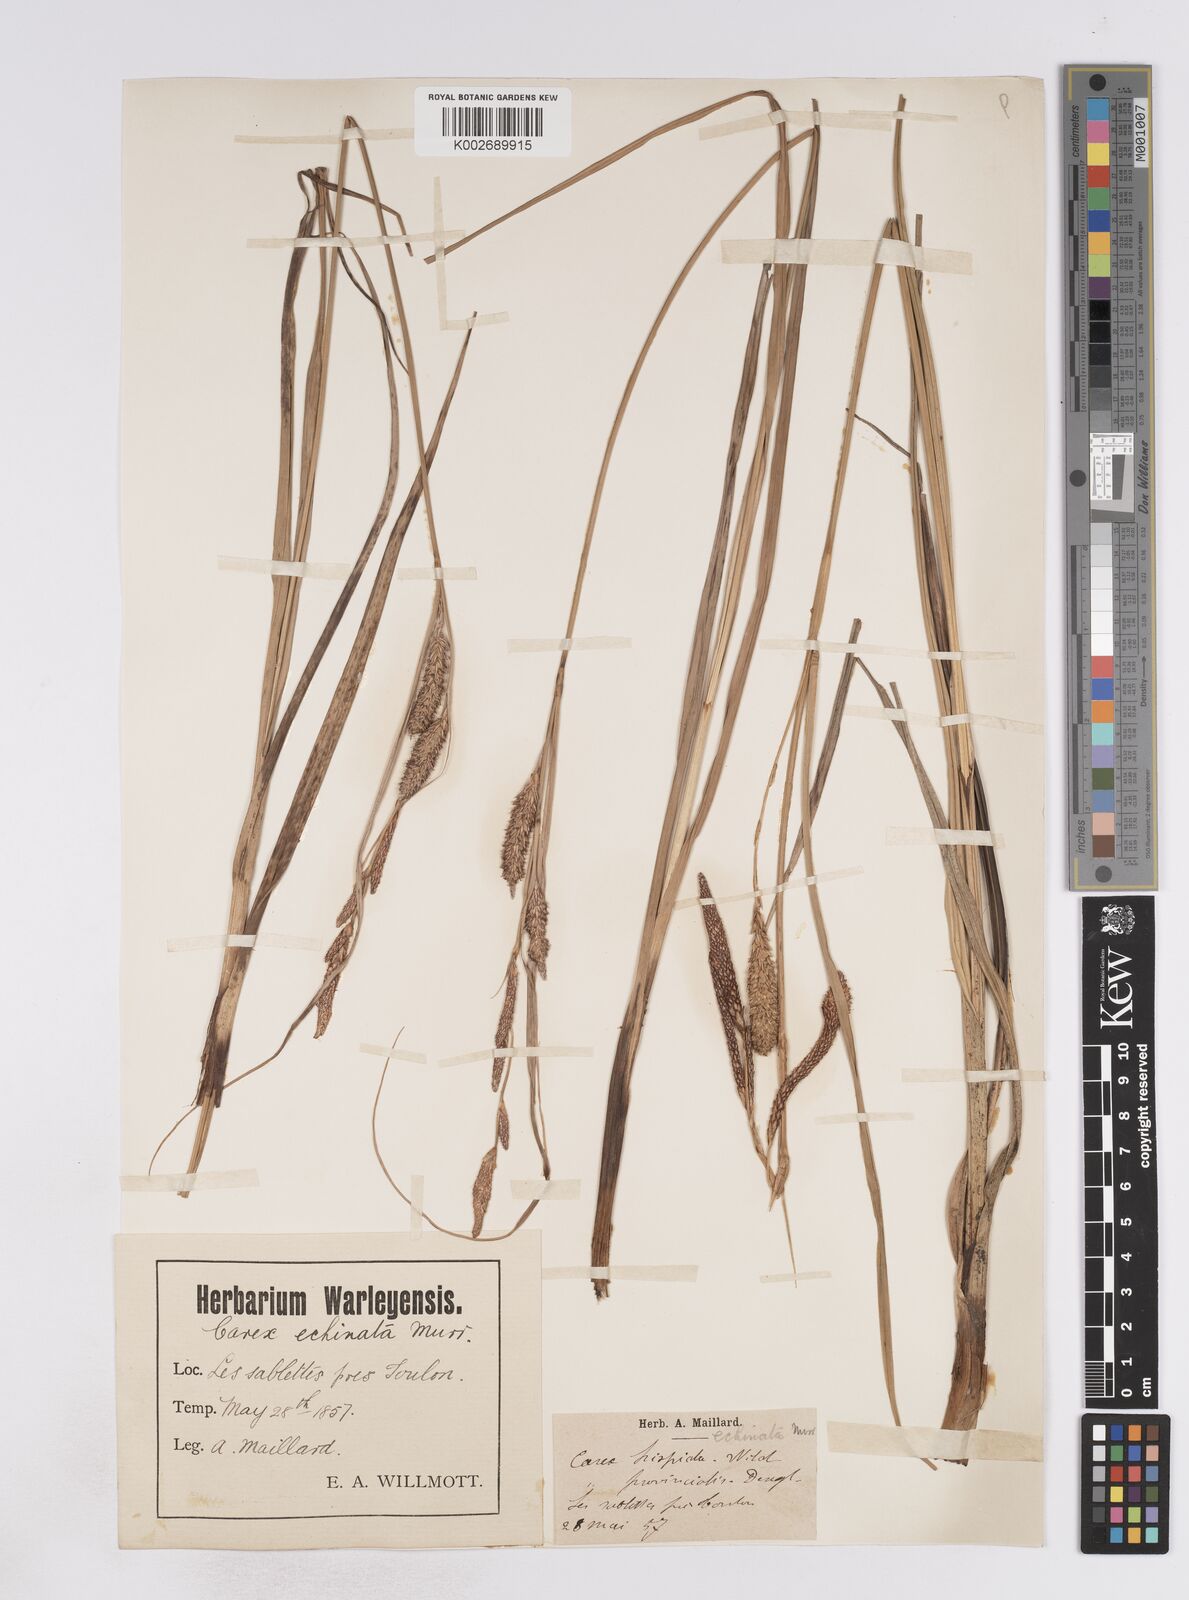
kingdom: Plantae
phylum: Tracheophyta
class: Liliopsida
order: Poales
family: Cyperaceae
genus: Carex
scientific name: Carex hispida
